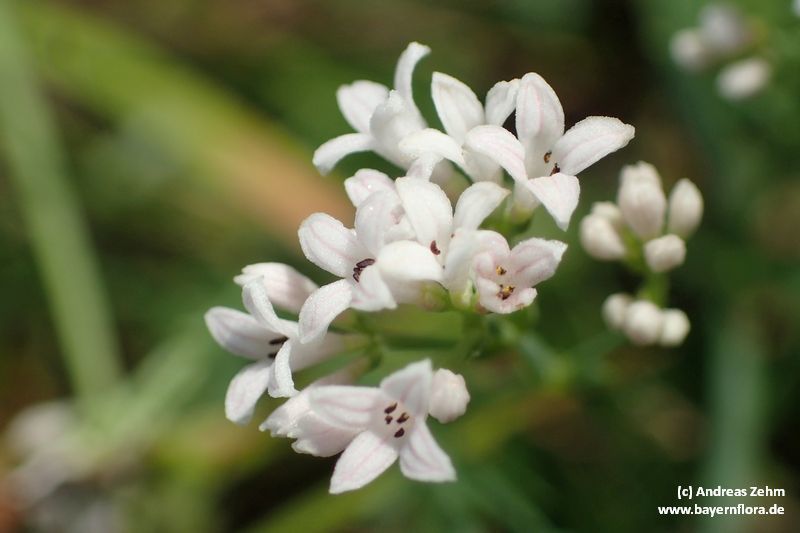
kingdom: Plantae
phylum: Tracheophyta
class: Magnoliopsida
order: Gentianales
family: Rubiaceae
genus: Cynanchica
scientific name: Cynanchica pyrenaica
